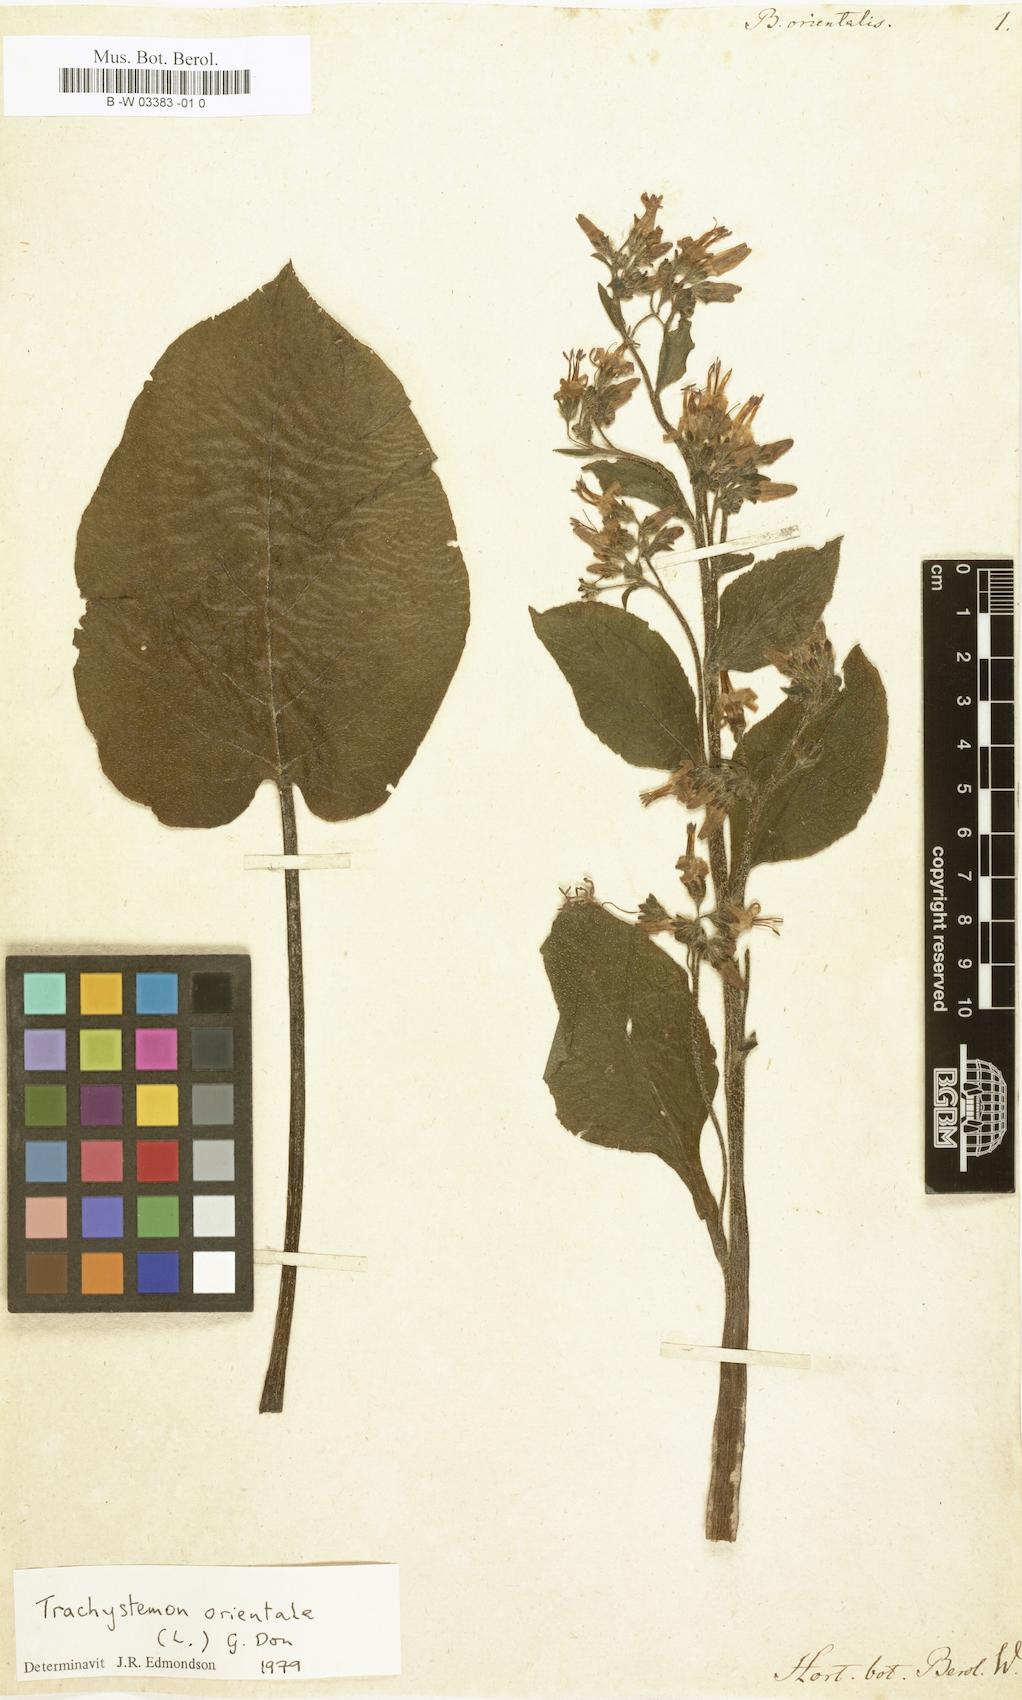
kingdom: Plantae
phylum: Tracheophyta
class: Magnoliopsida
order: Boraginales
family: Boraginaceae
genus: Trachystemon
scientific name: Trachystemon orientale
